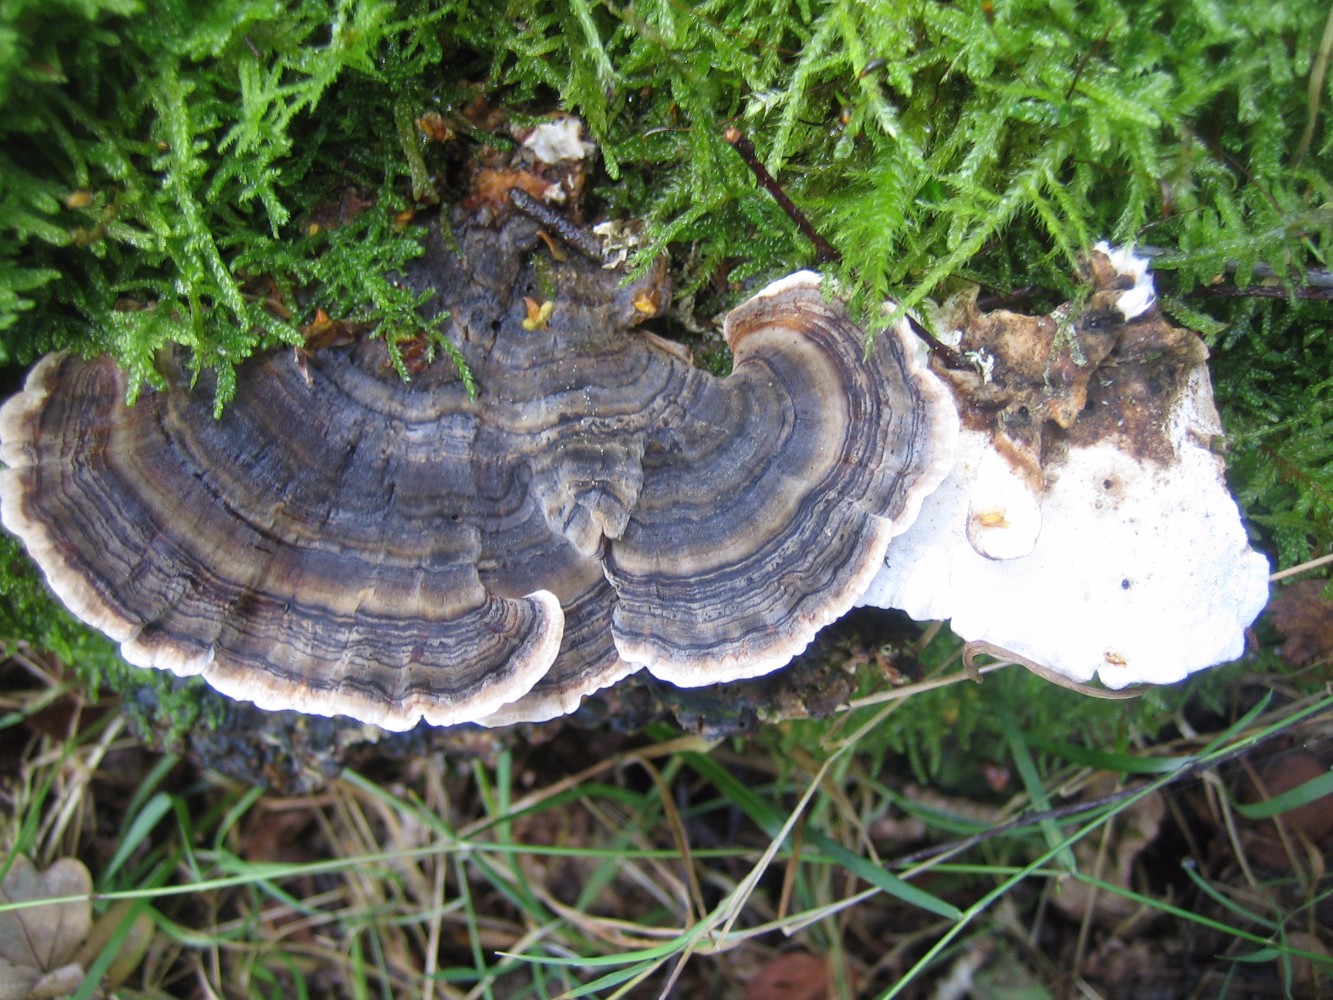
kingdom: Fungi
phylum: Basidiomycota
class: Agaricomycetes
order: Polyporales
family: Polyporaceae
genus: Trametes
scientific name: Trametes versicolor
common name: broget læderporesvamp
